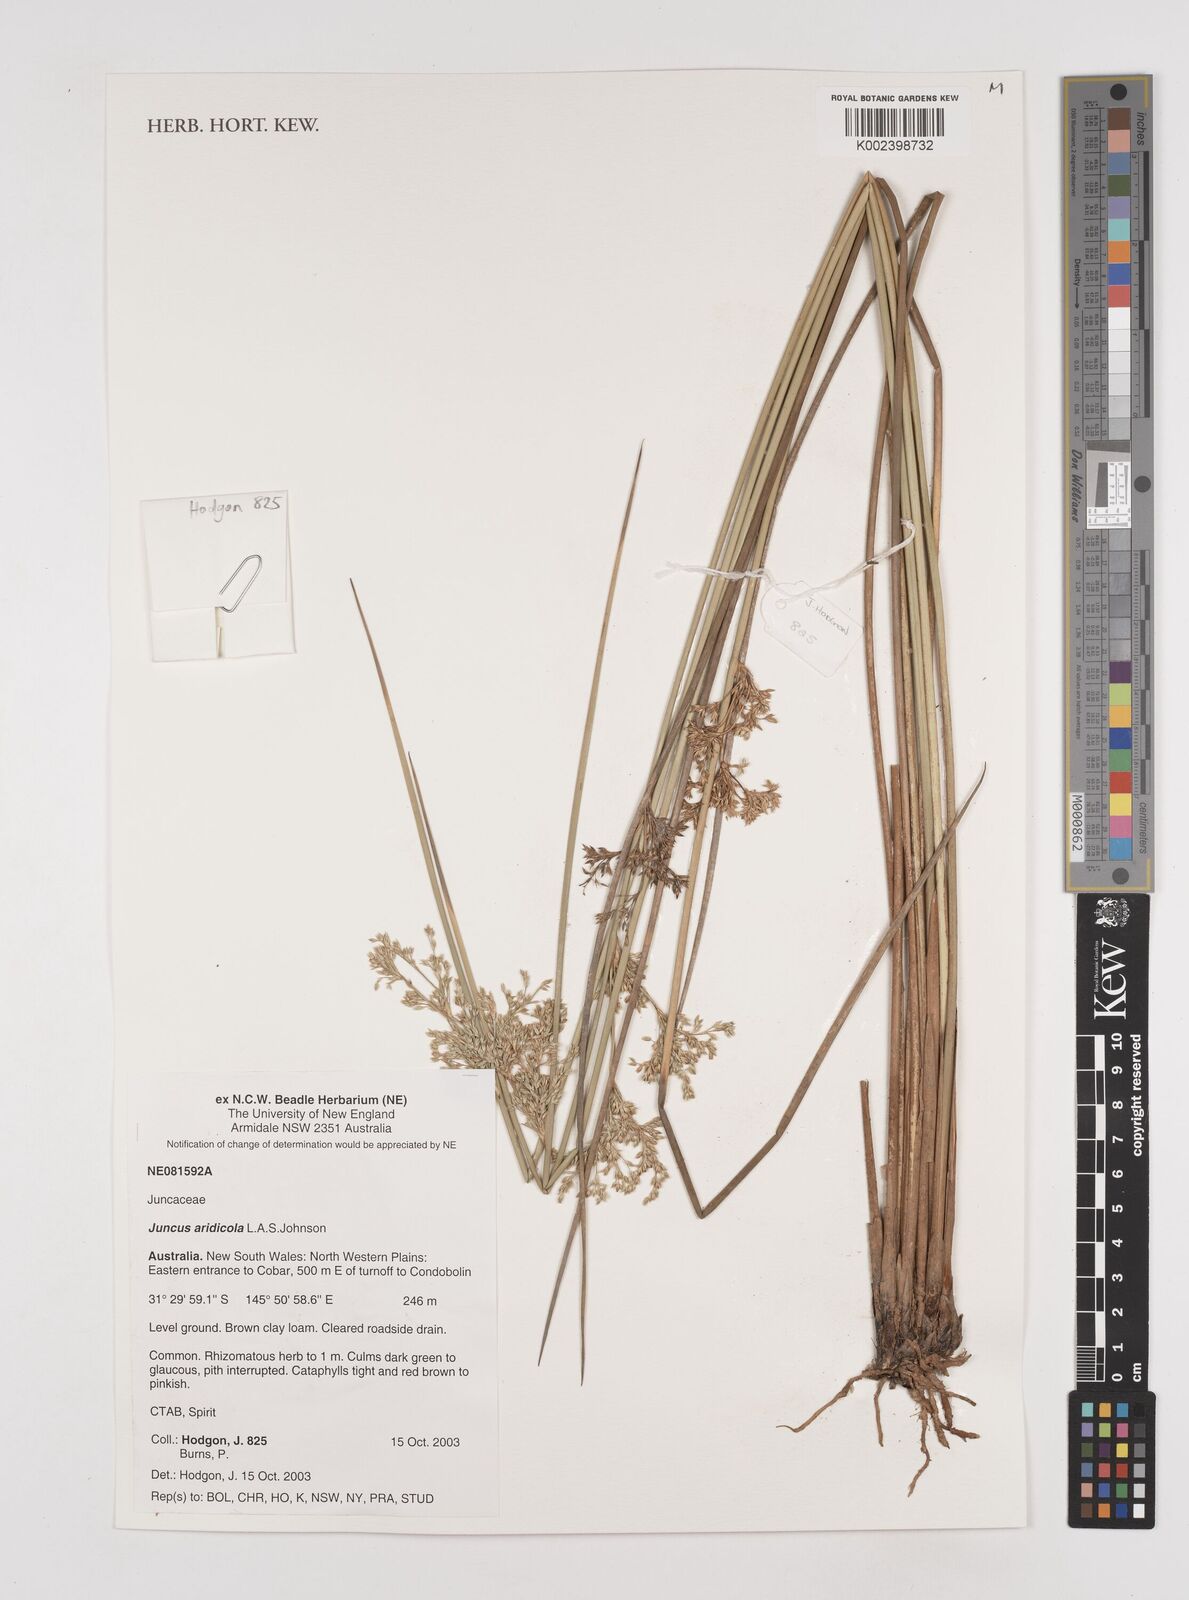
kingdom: Plantae
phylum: Tracheophyta
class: Liliopsida
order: Poales
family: Juncaceae
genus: Juncus
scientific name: Juncus aridicola
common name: Tussock rush
